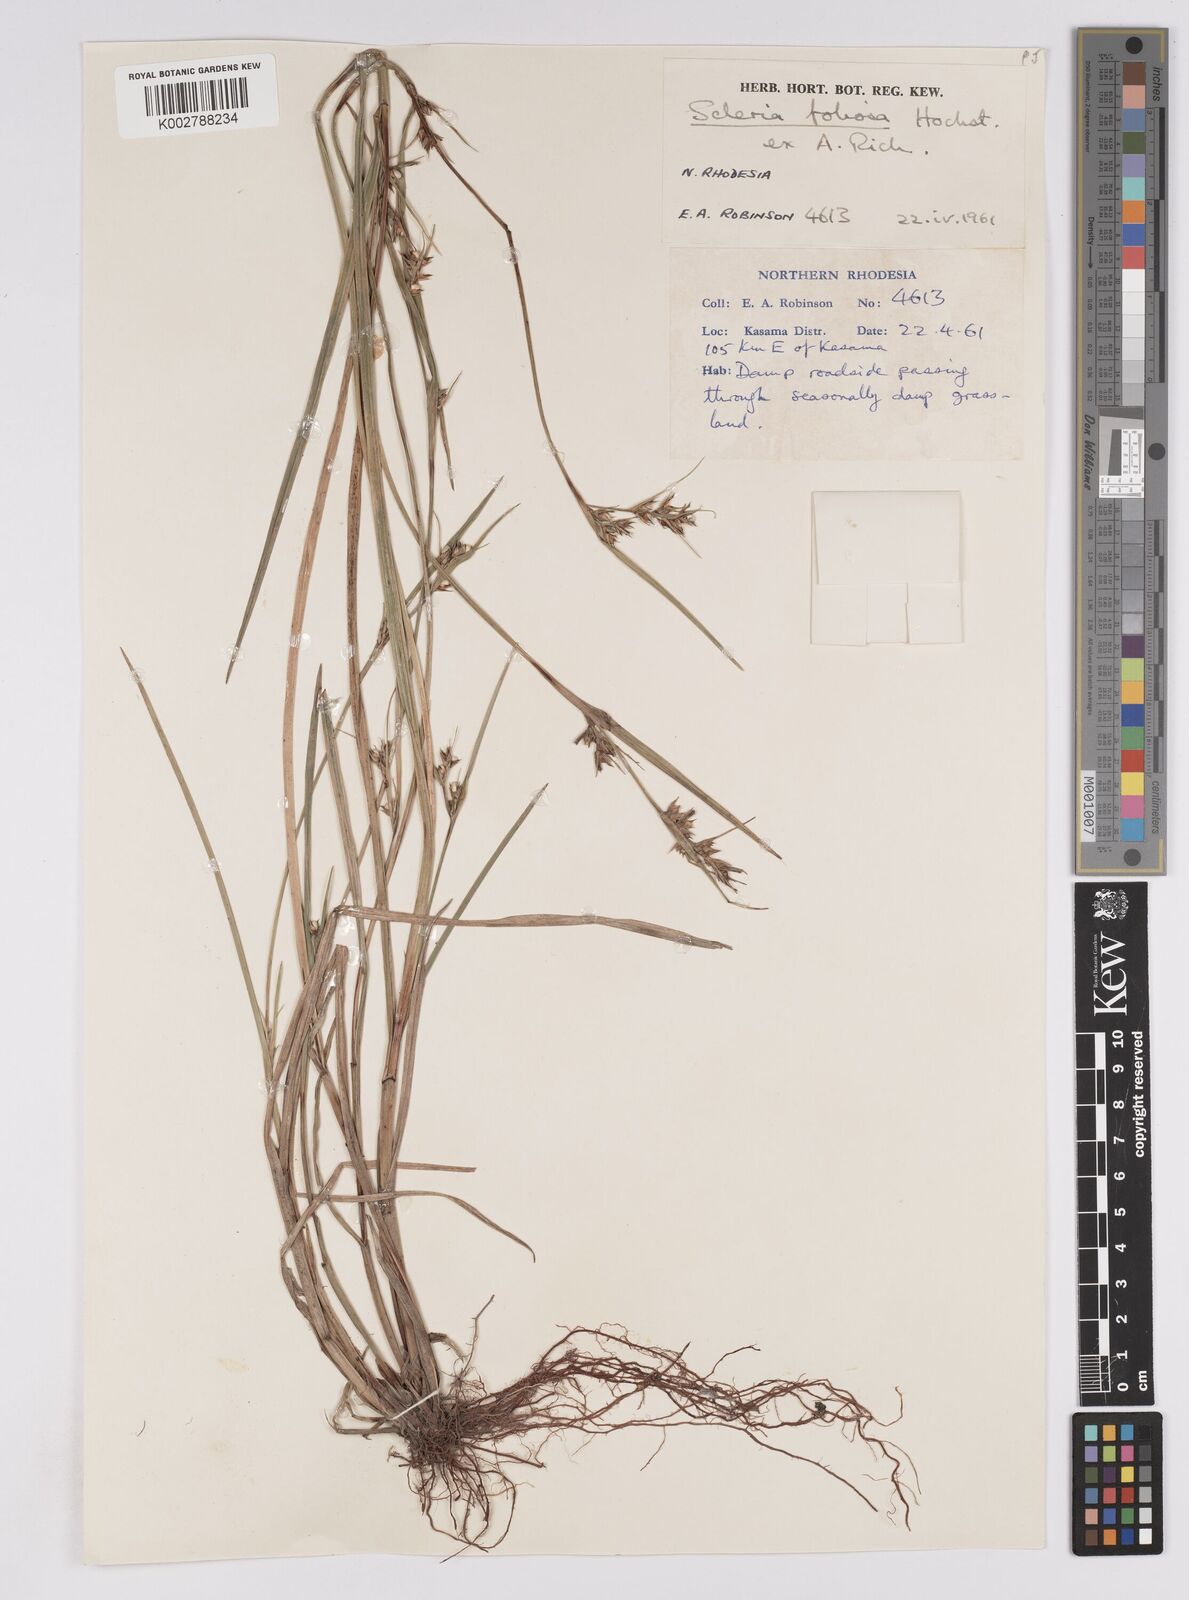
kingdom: Plantae
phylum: Tracheophyta
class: Liliopsida
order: Poales
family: Cyperaceae
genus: Scleria
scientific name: Scleria foliosa
